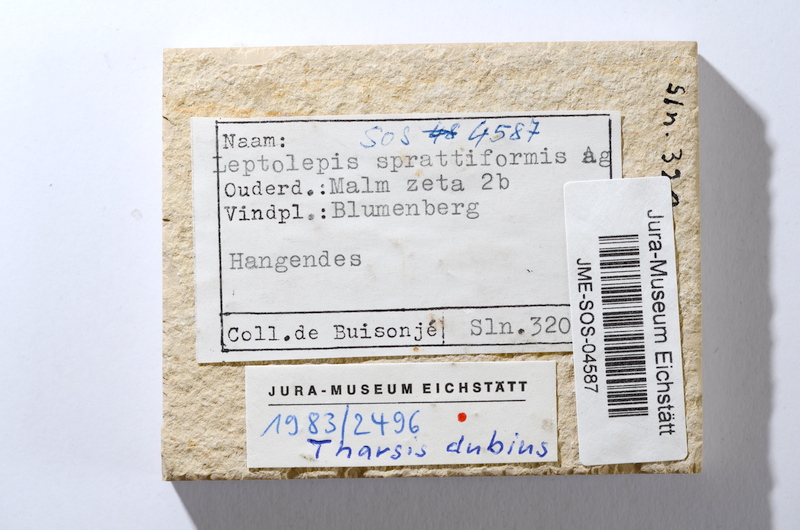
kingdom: Animalia
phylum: Chordata
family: Ascalaboidae
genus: Tharsis
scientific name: Tharsis dubius
